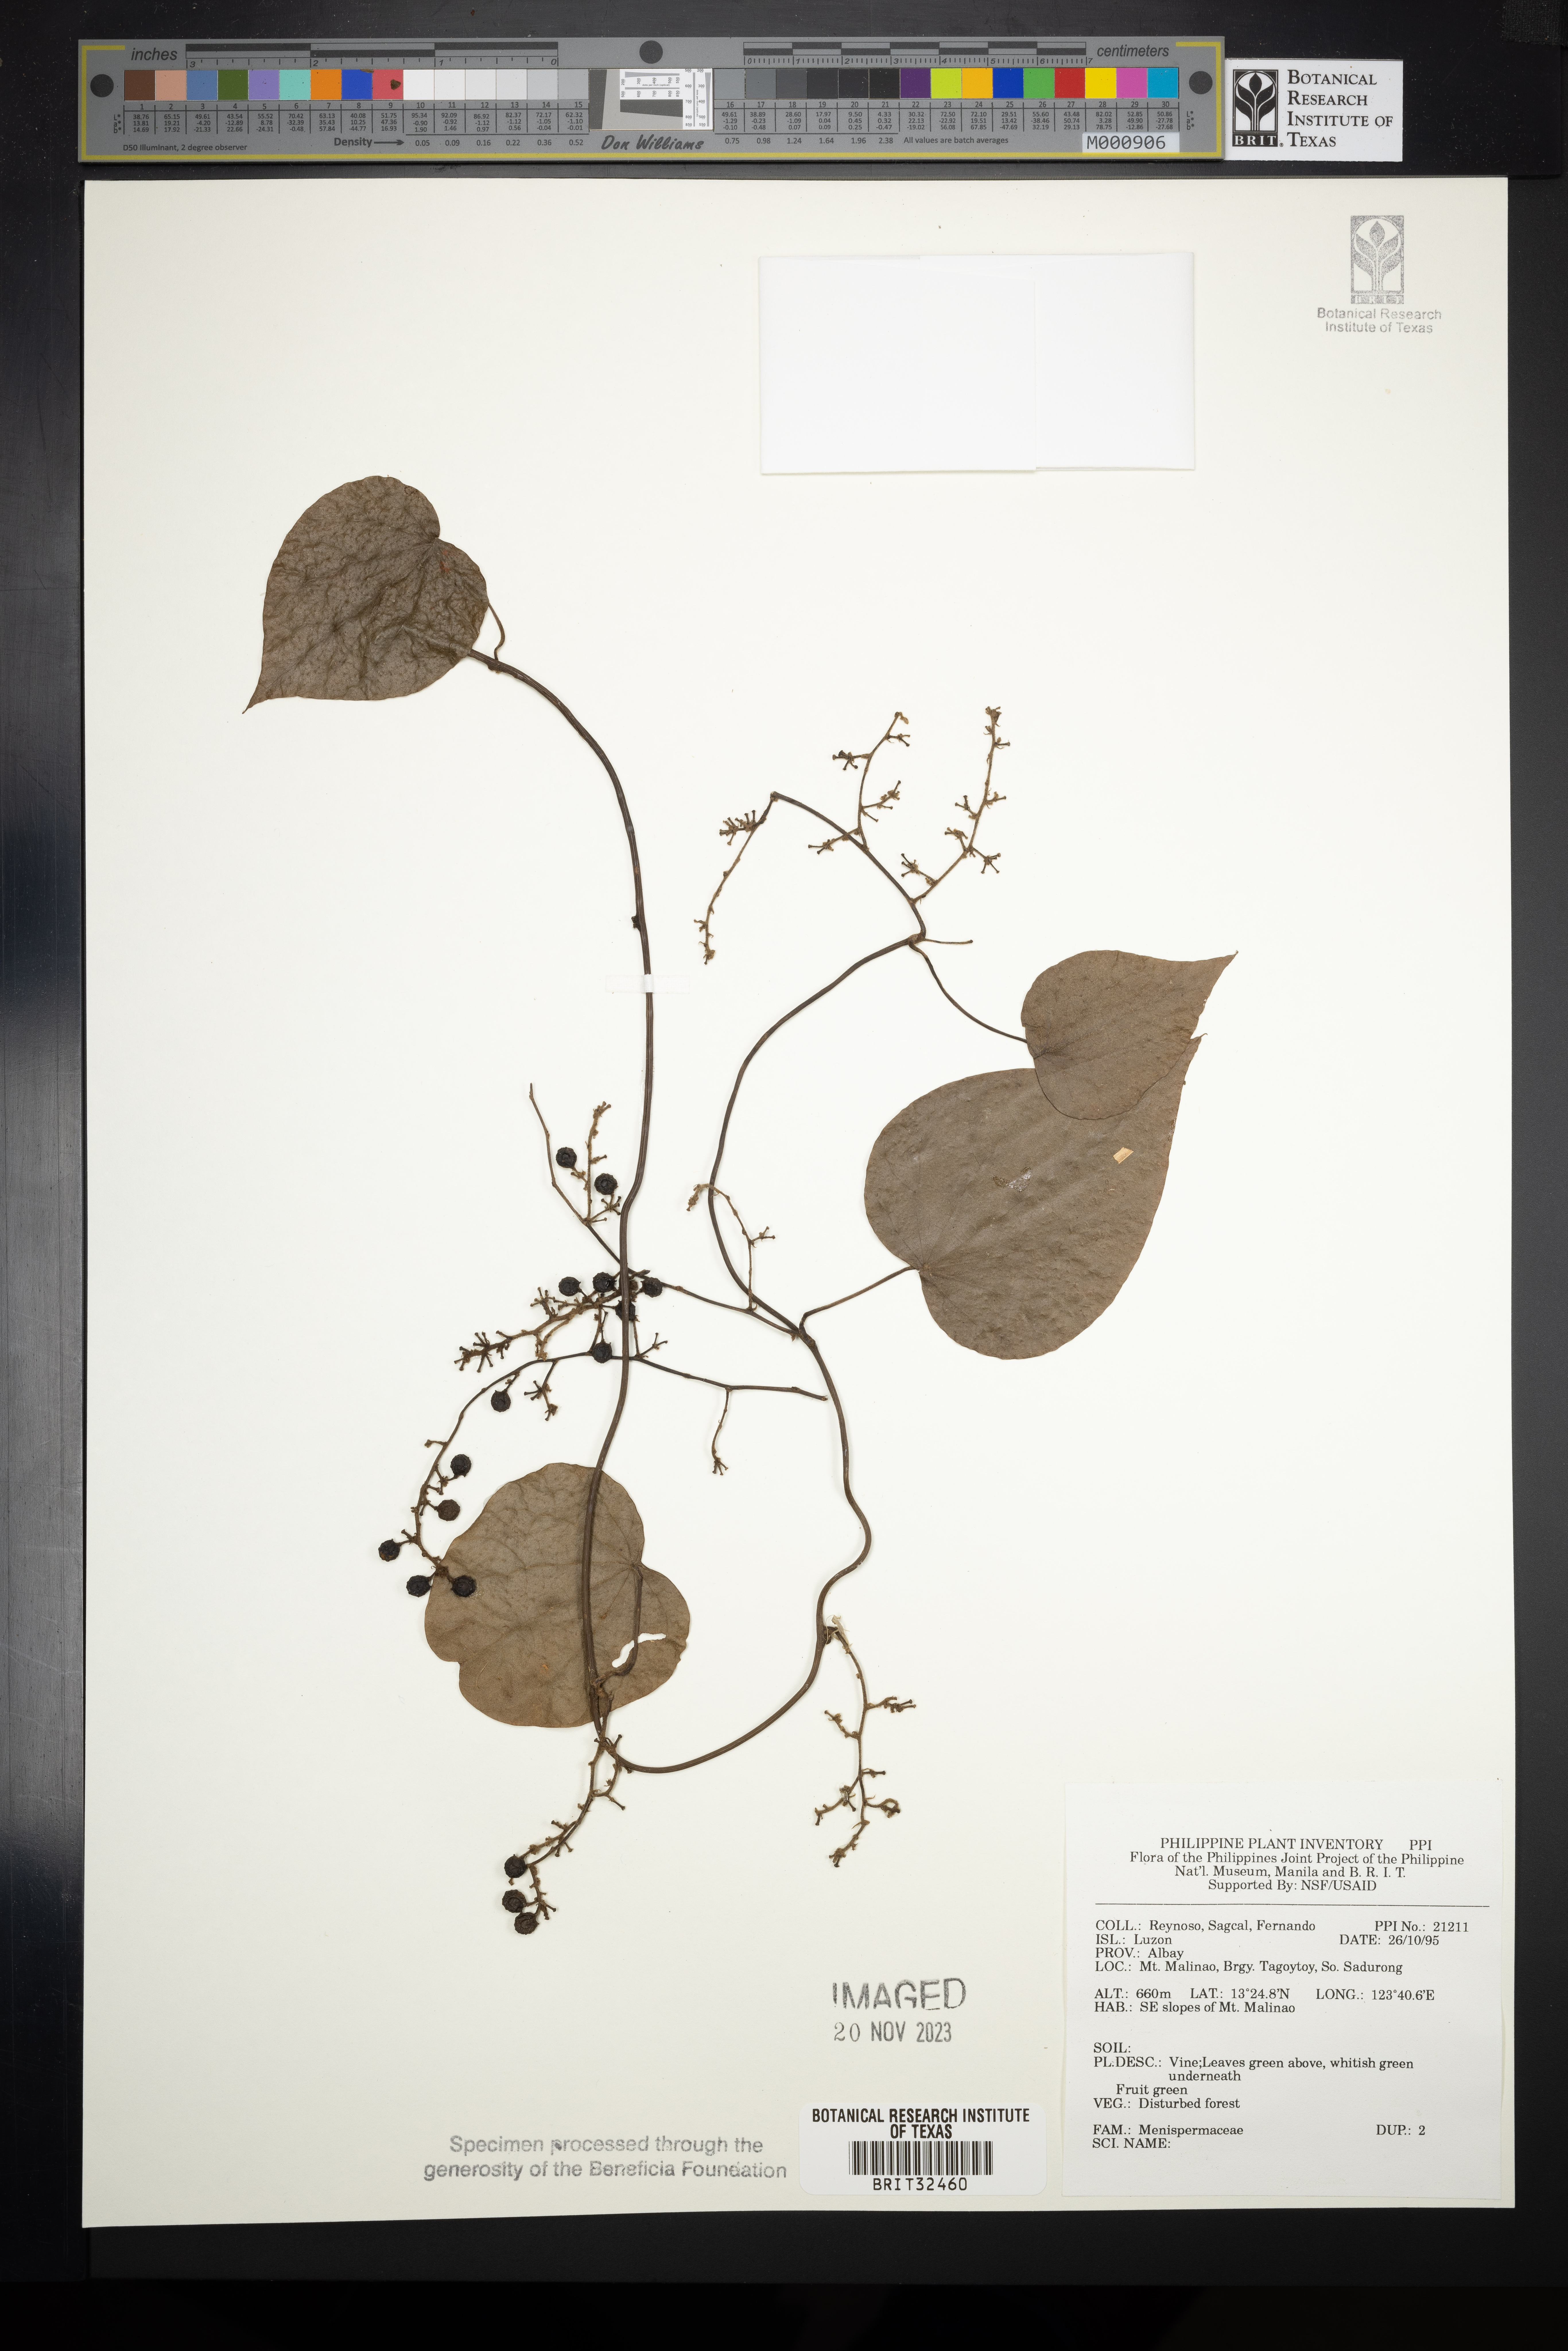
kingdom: Plantae
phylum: Tracheophyta
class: Magnoliopsida
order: Ranunculales
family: Menispermaceae
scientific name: Menispermaceae
